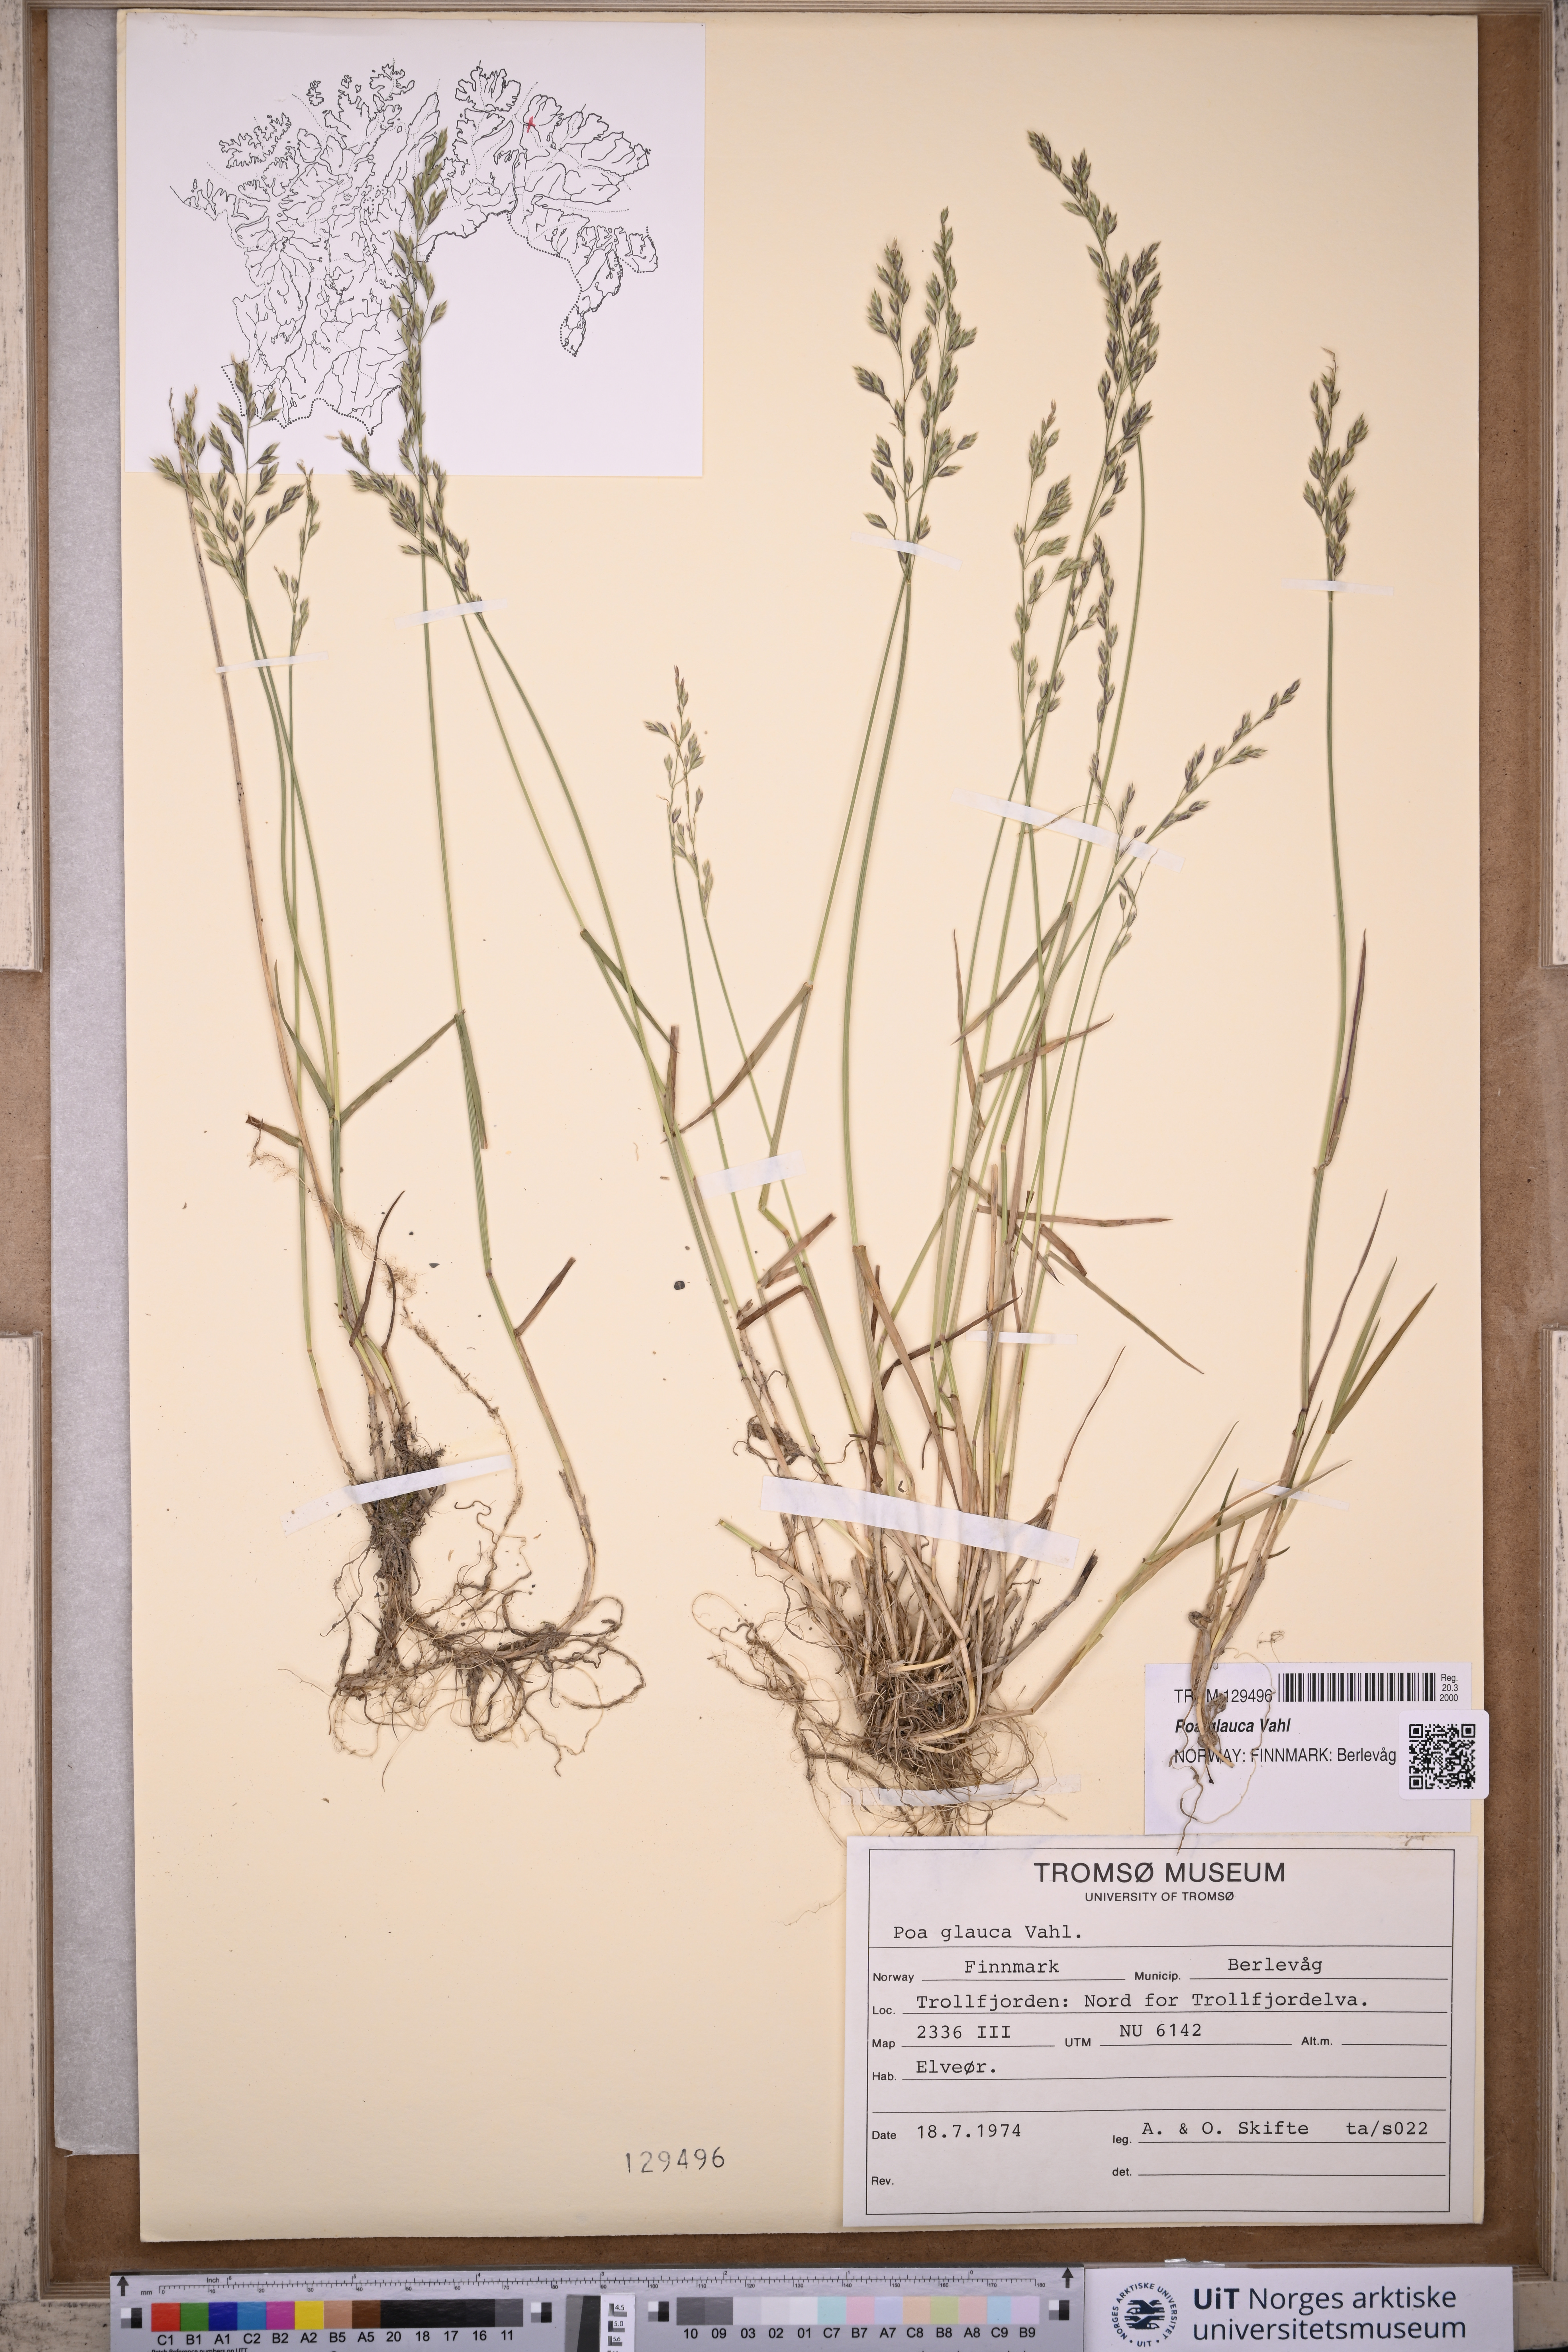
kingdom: Plantae
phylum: Tracheophyta
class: Liliopsida
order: Poales
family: Poaceae
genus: Poa
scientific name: Poa glauca
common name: Glaucous bluegrass
